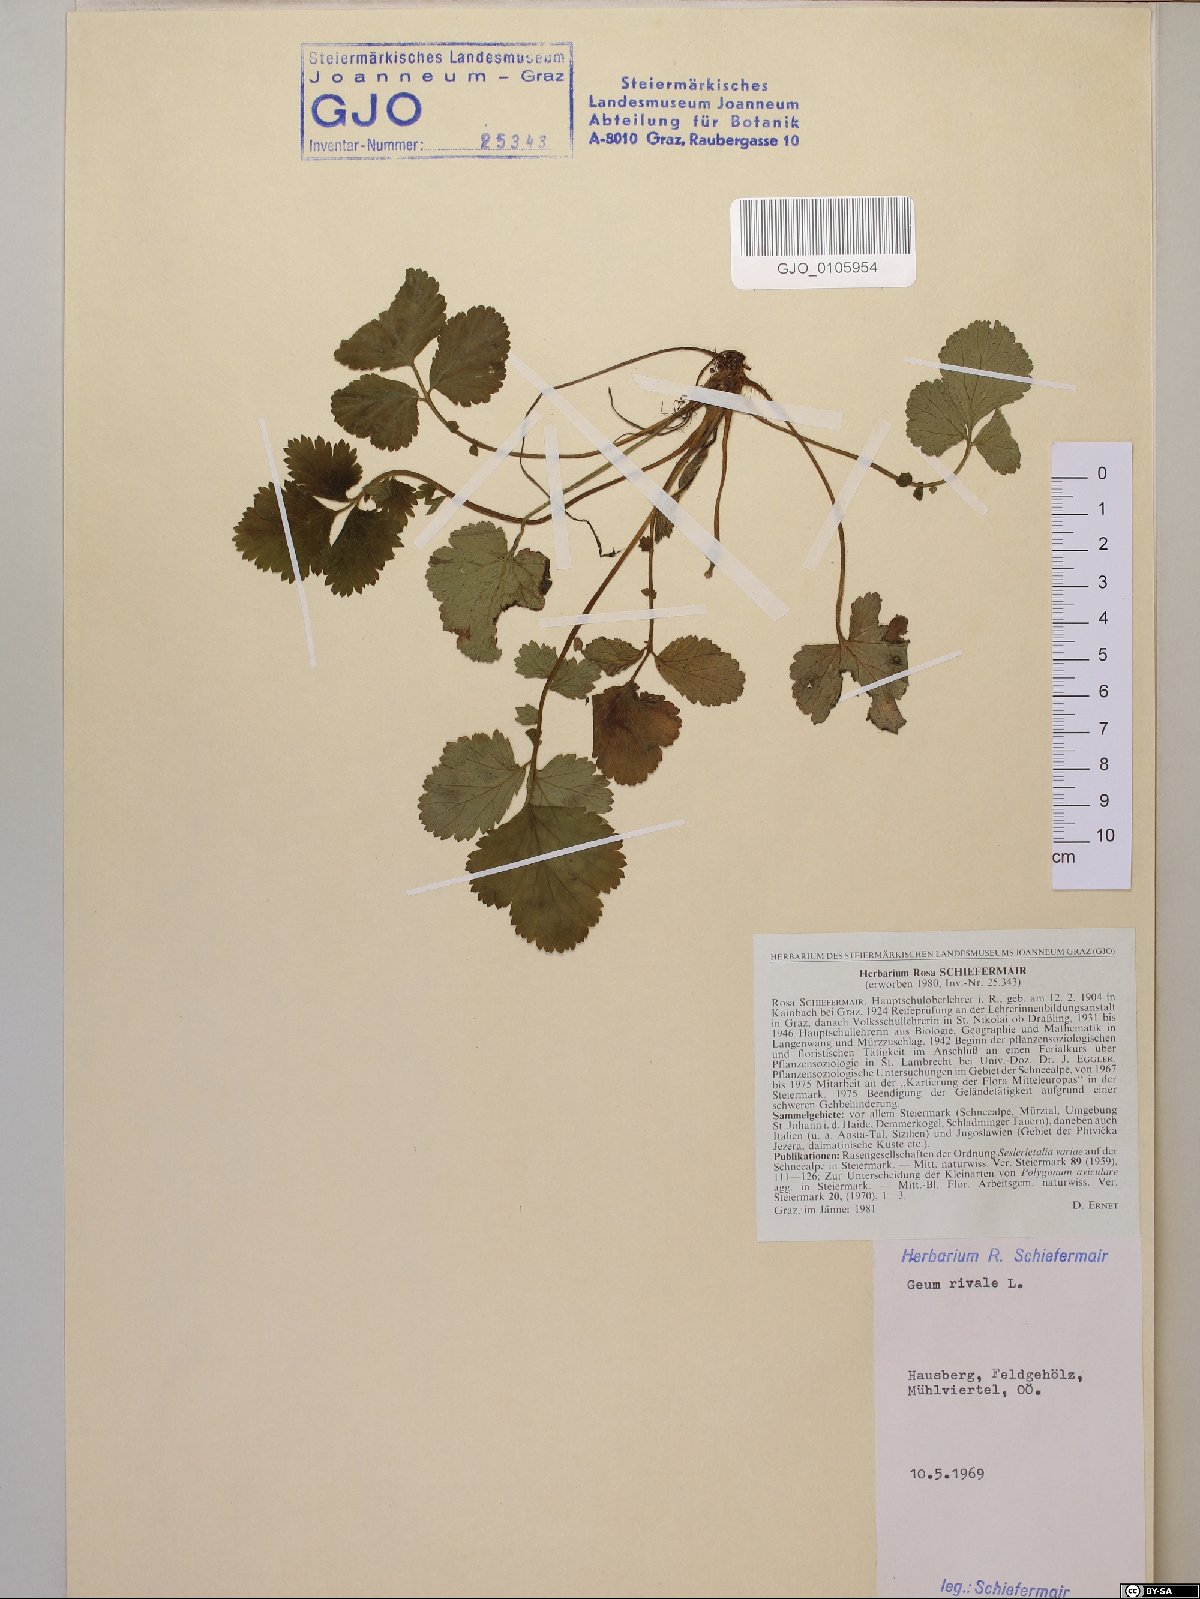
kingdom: Plantae
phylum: Tracheophyta
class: Magnoliopsida
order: Rosales
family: Rosaceae
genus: Geum
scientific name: Geum rivale
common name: Water avens
